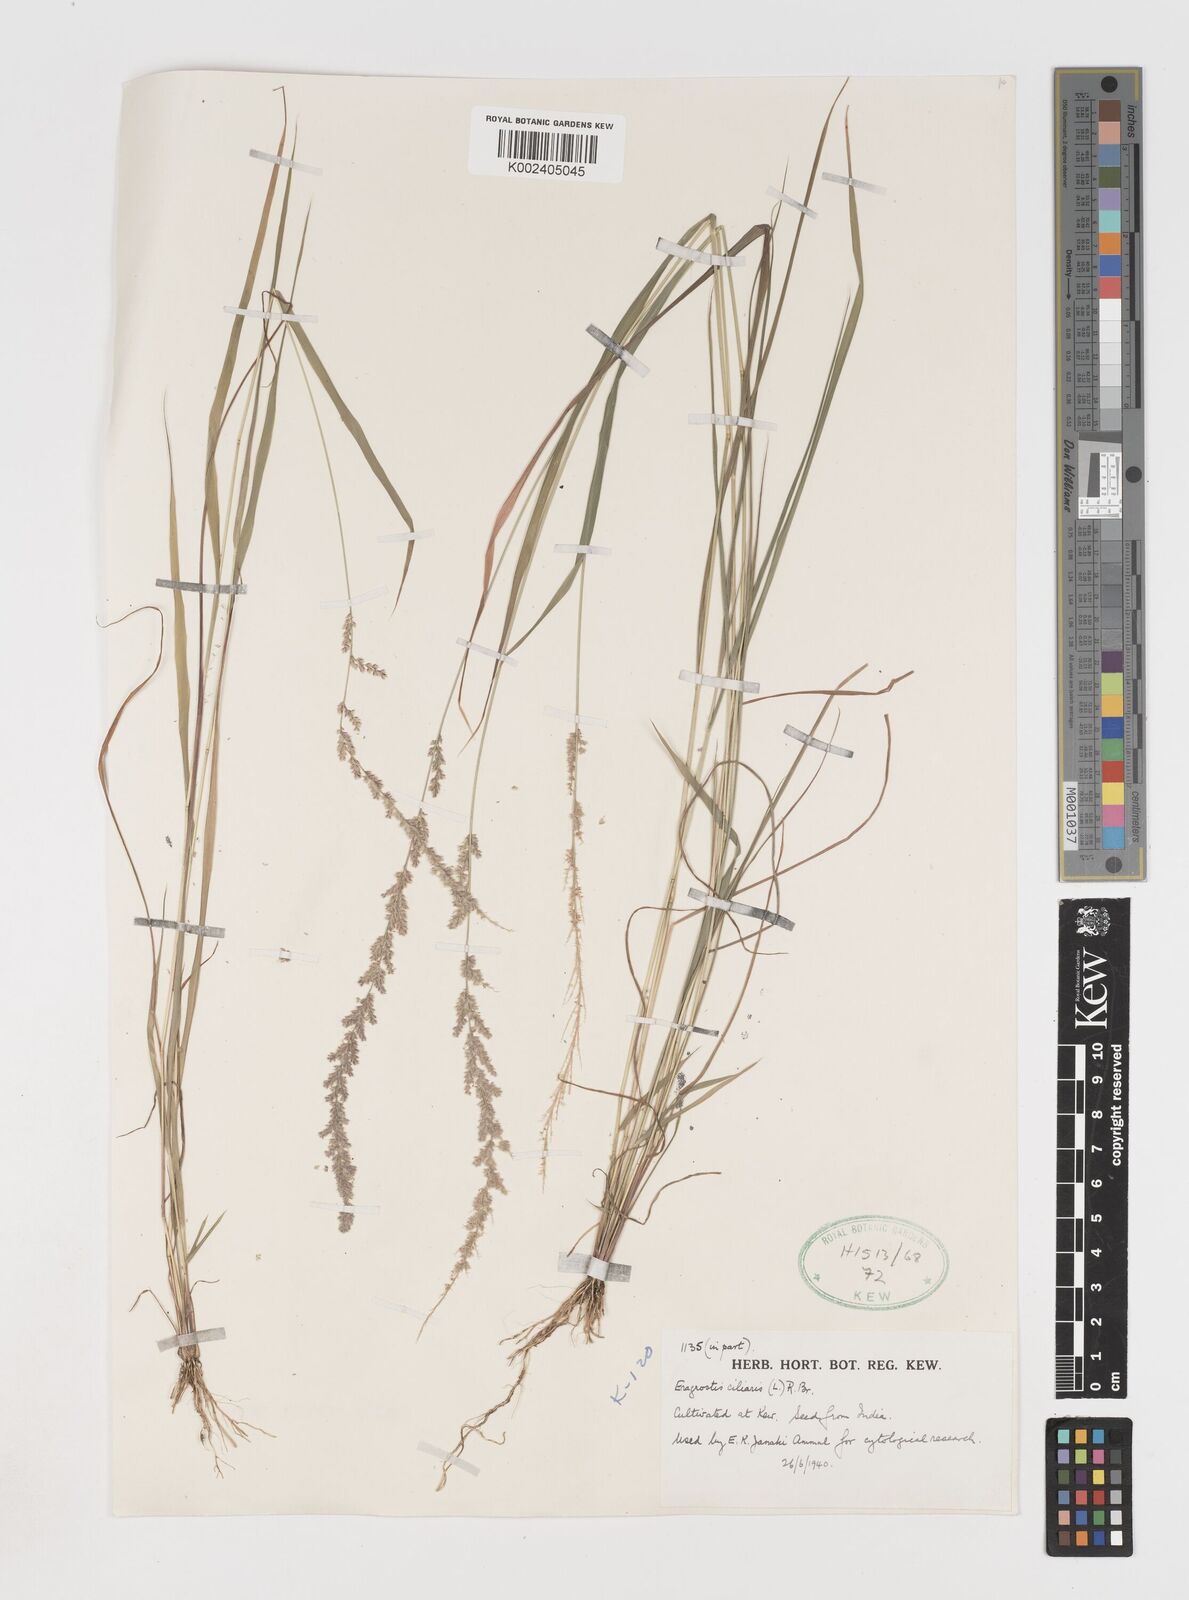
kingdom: Plantae
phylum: Tracheophyta
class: Liliopsida
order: Poales
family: Poaceae
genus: Eragrostis
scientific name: Eragrostis ciliaris
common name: Gophertail lovegrass
